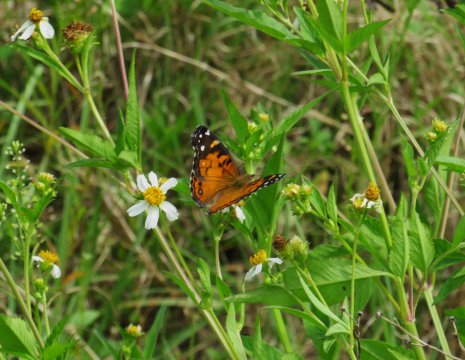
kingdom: Animalia
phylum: Arthropoda
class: Insecta
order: Lepidoptera
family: Nymphalidae
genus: Vanessa
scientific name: Vanessa virginiensis
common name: American Lady
